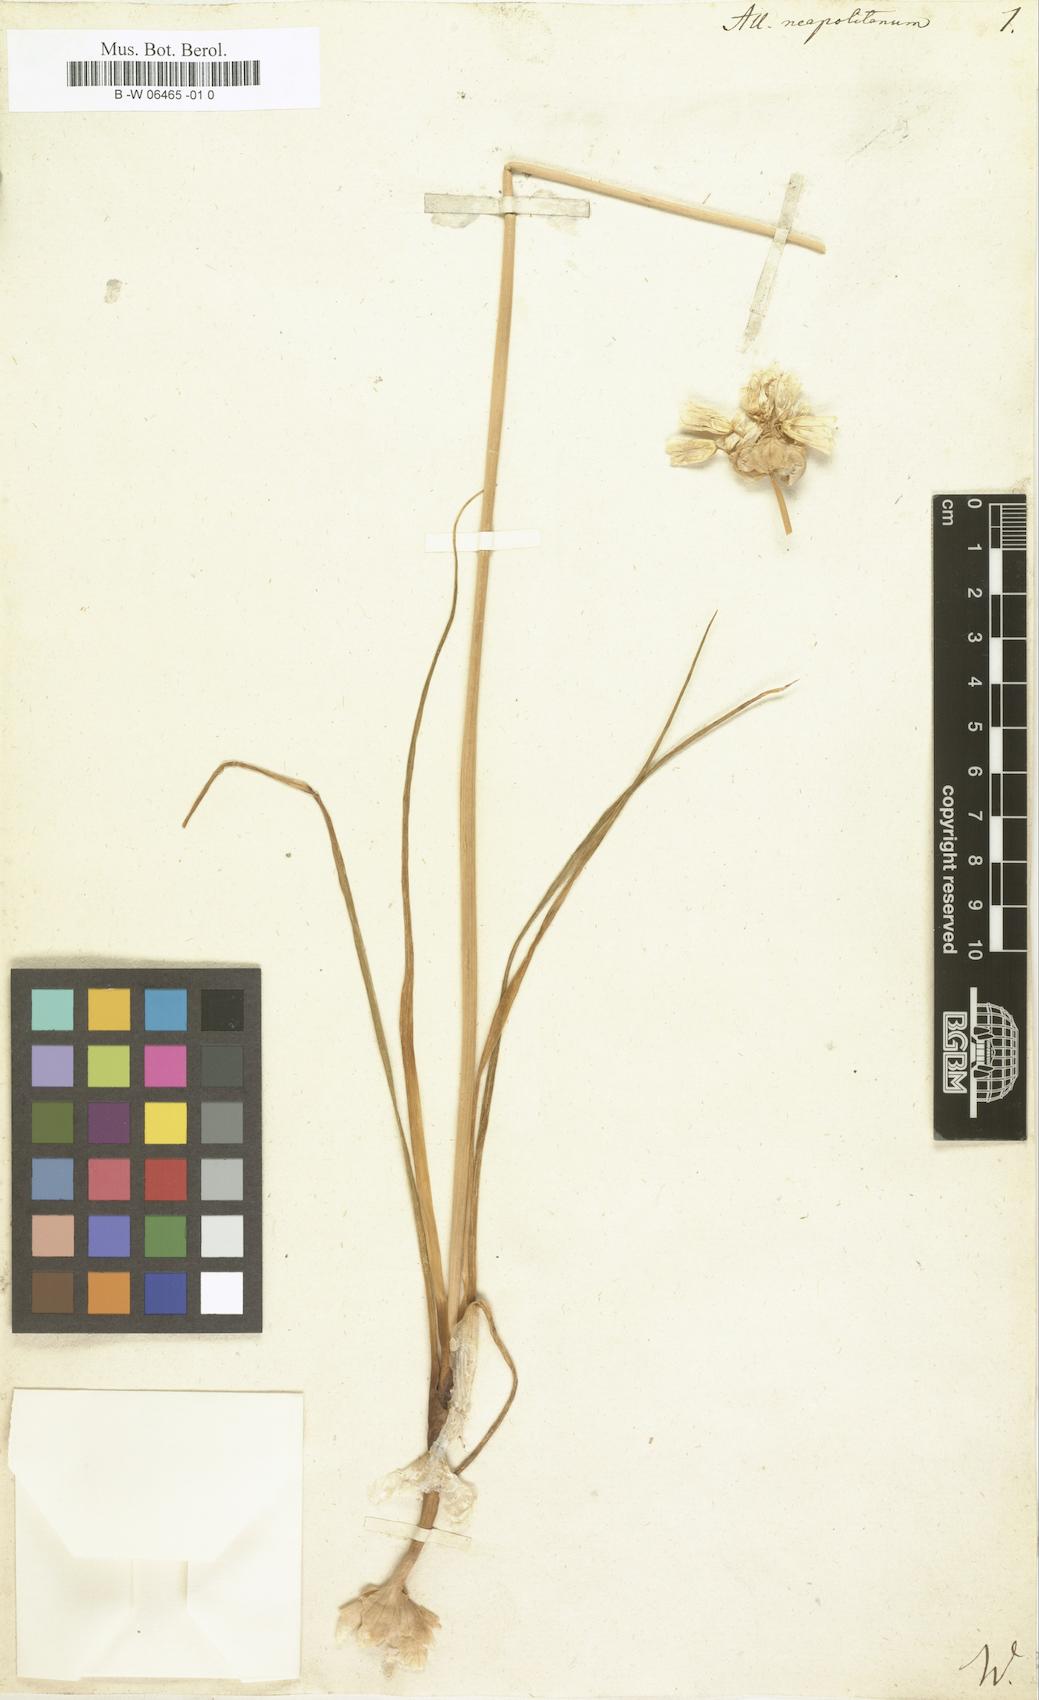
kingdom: Plantae
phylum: Tracheophyta
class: Liliopsida
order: Asparagales
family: Amaryllidaceae
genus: Allium
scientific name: Allium neapolitanum
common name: Neapolitan garlic
